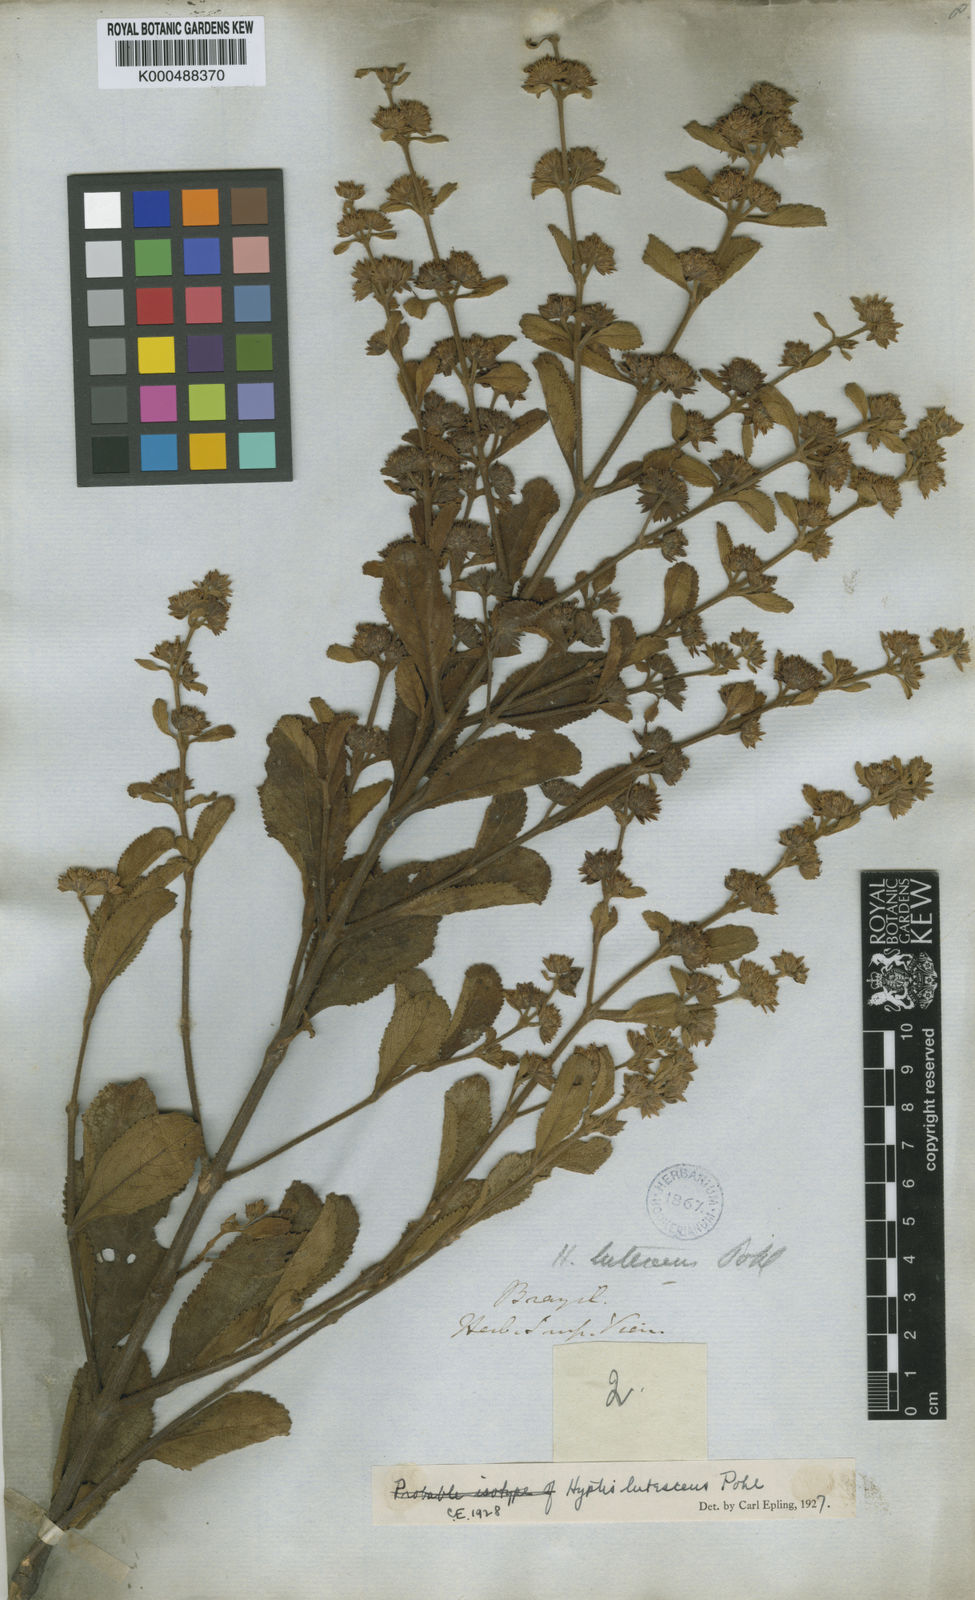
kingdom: Plantae
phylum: Tracheophyta
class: Magnoliopsida
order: Lamiales
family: Lamiaceae
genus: Hyptis
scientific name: Hyptis lutescens
